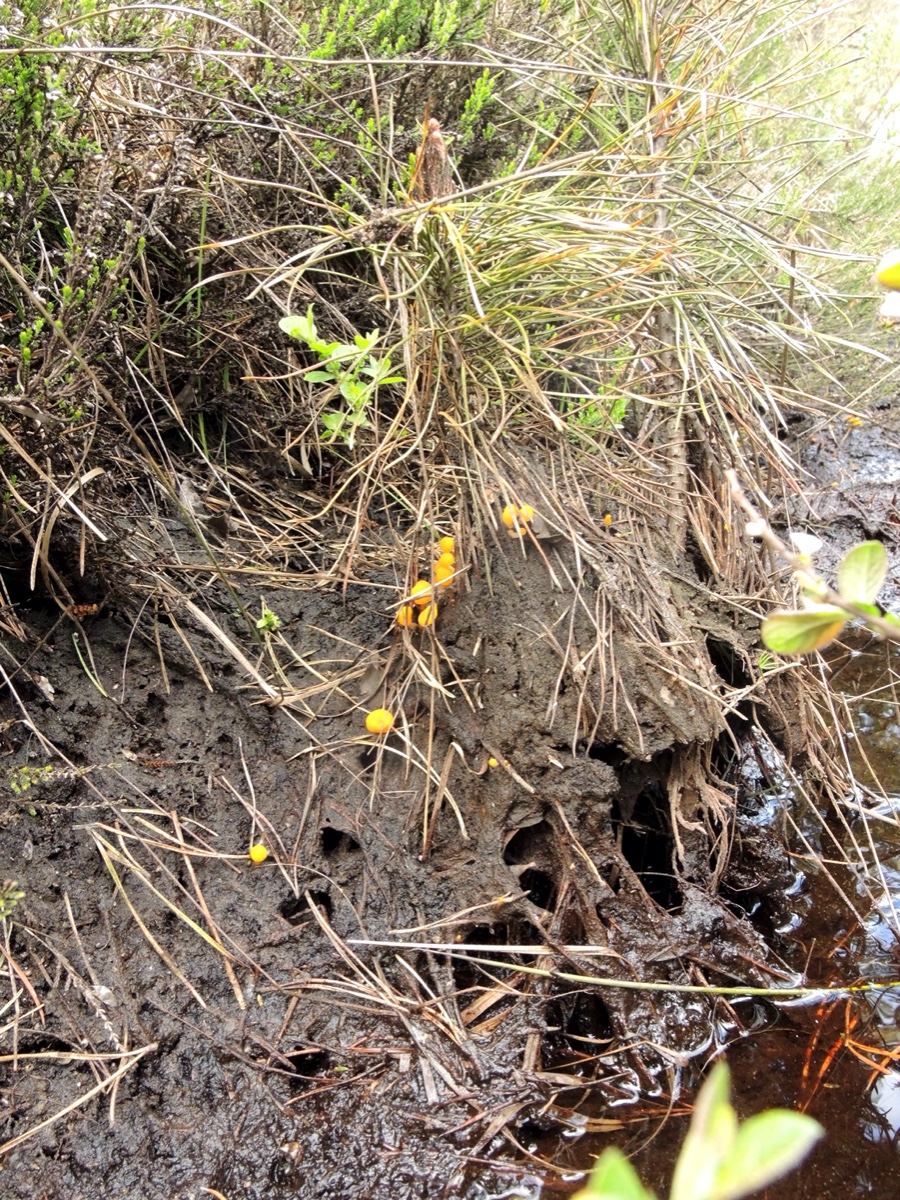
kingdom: Fungi
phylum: Ascomycota
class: Leotiomycetes
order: Helotiales
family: Cenangiaceae
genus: Mitrula
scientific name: Mitrula paludosa
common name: gul nøkketunge
